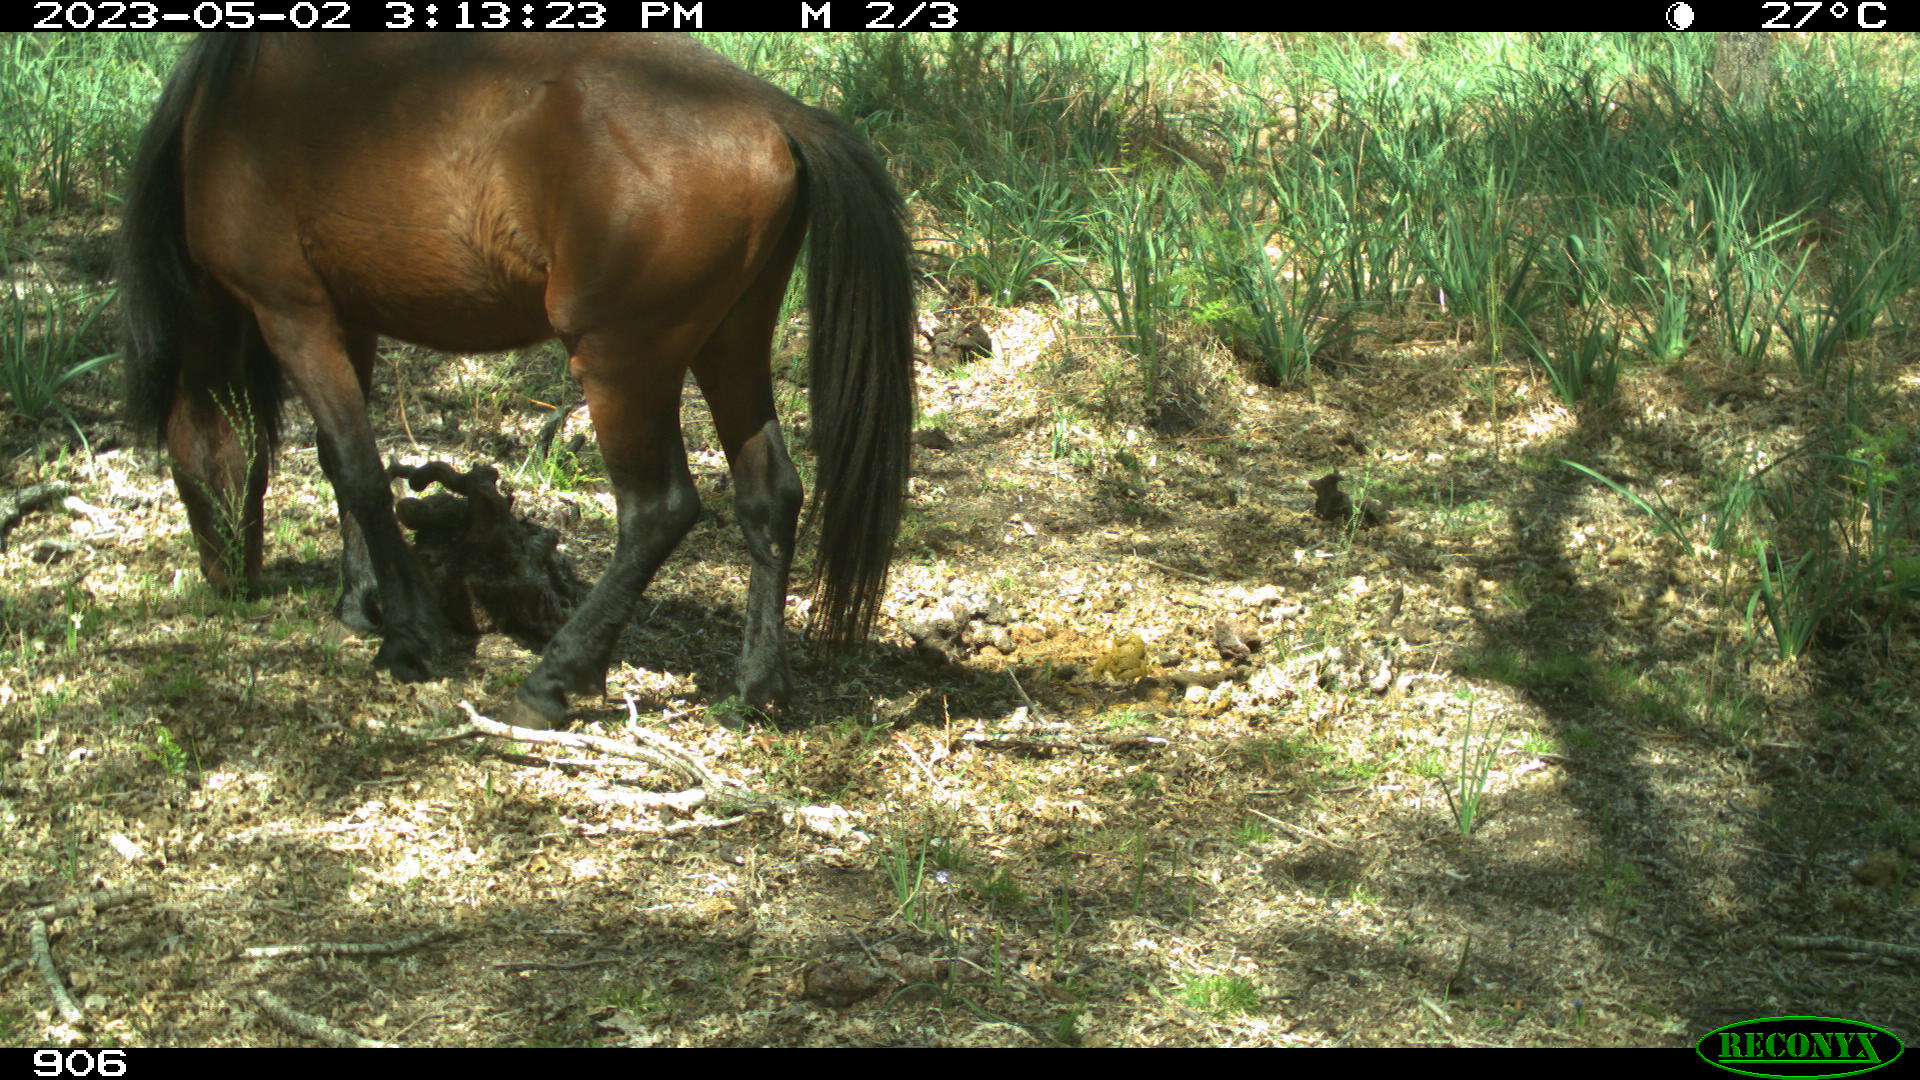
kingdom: Animalia
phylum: Chordata
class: Mammalia
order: Perissodactyla
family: Equidae
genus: Equus
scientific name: Equus caballus
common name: Horse
